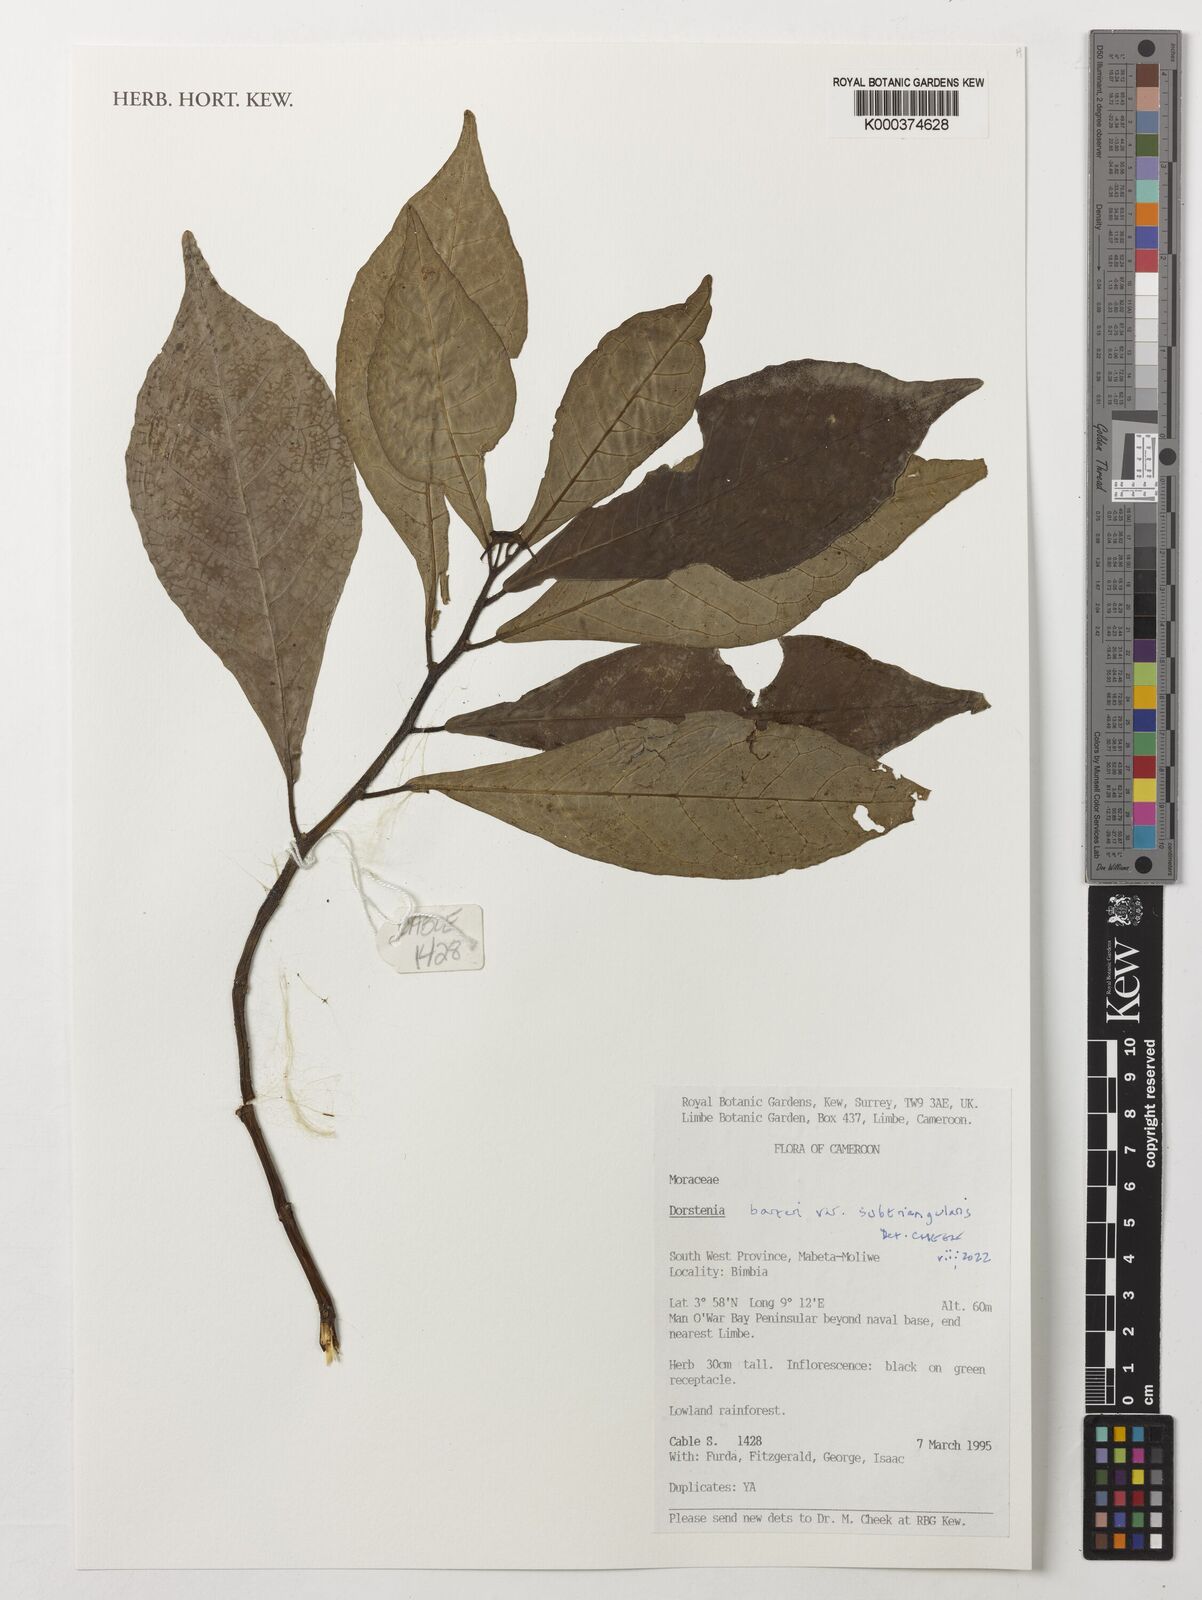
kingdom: Plantae
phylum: Tracheophyta
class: Magnoliopsida
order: Rosales
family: Moraceae
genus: Dorstenia
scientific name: Dorstenia barteri
